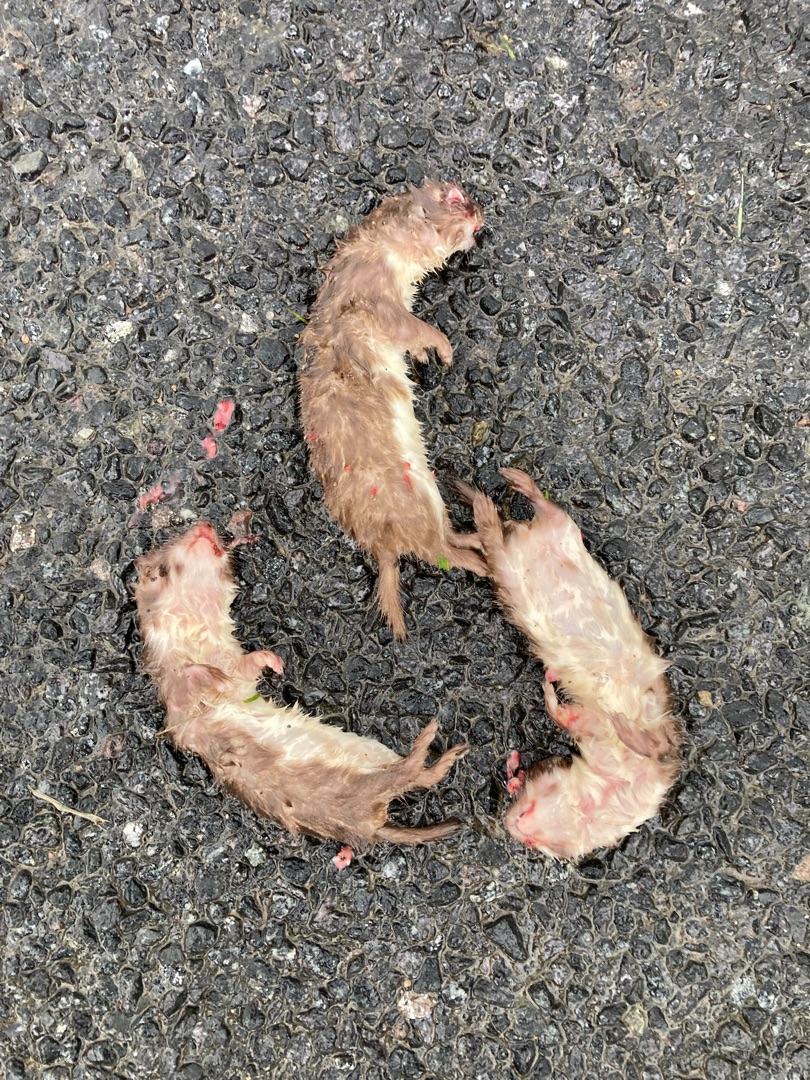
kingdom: Animalia
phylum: Chordata
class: Mammalia
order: Carnivora
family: Mustelidae
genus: Mustela
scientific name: Mustela nivalis
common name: Brud
